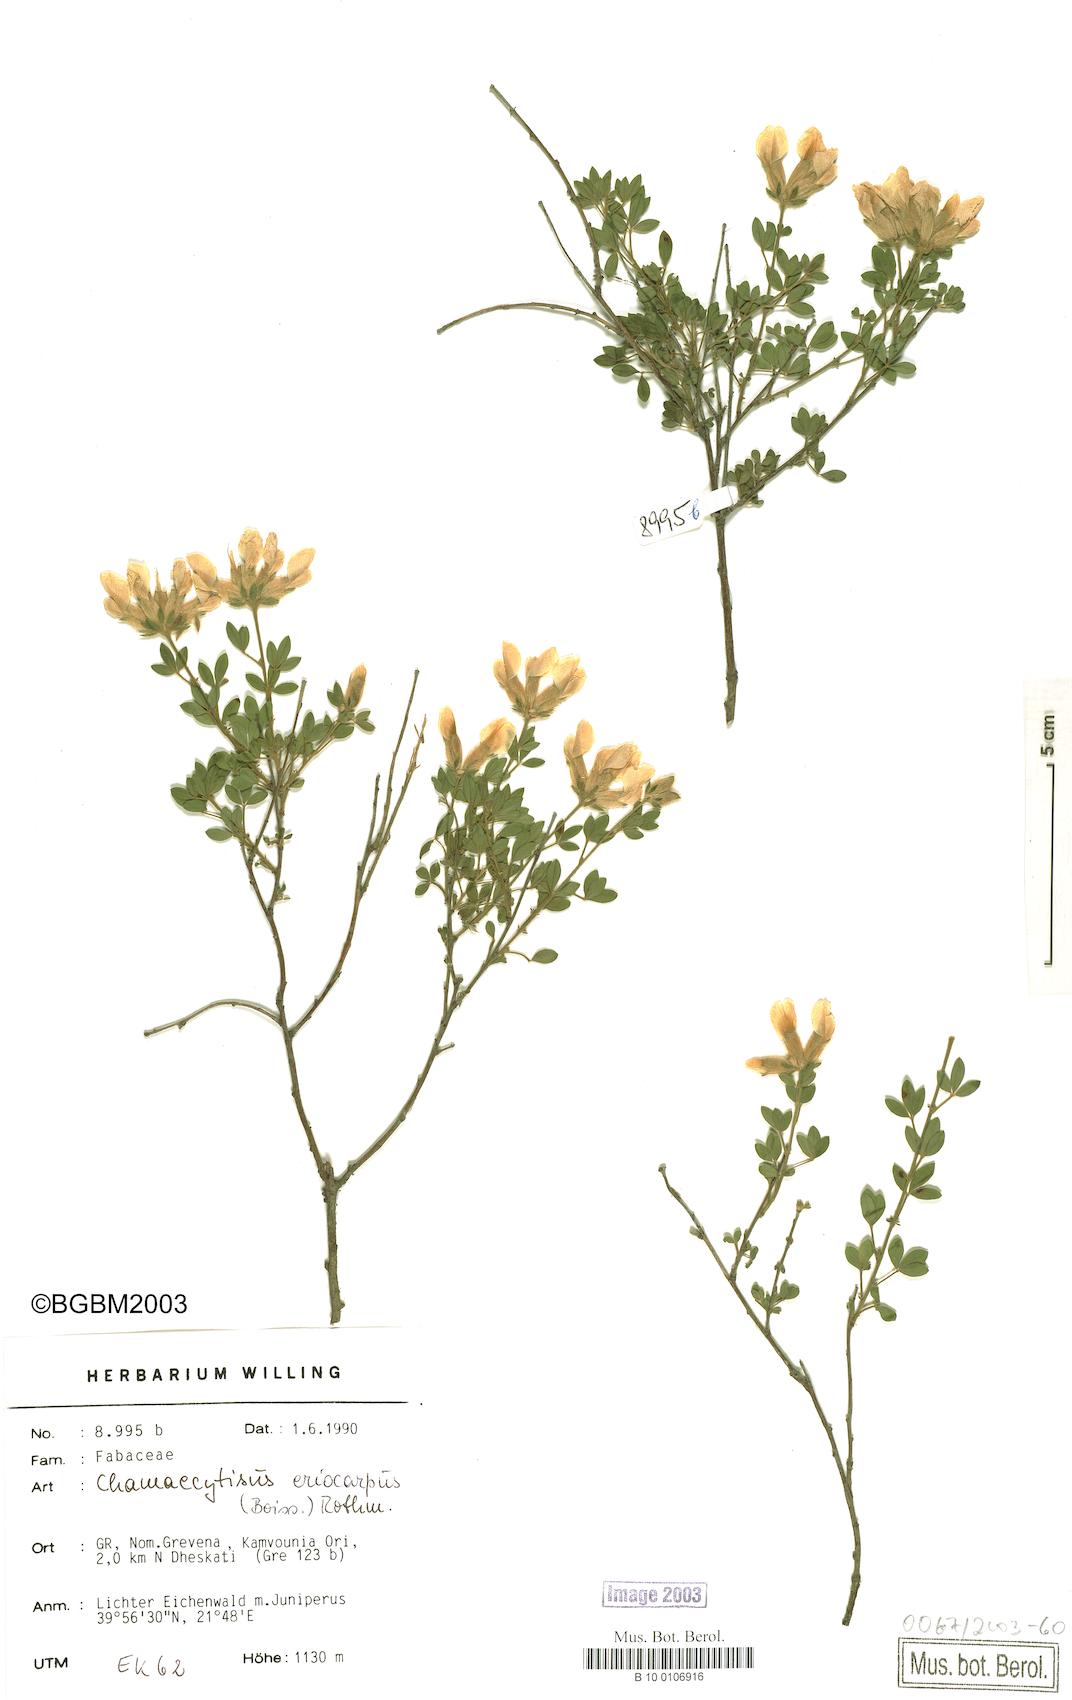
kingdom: Plantae
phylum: Tracheophyta
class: Magnoliopsida
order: Fabales
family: Fabaceae
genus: Chamaecytisus
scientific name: Chamaecytisus eriocarpus
